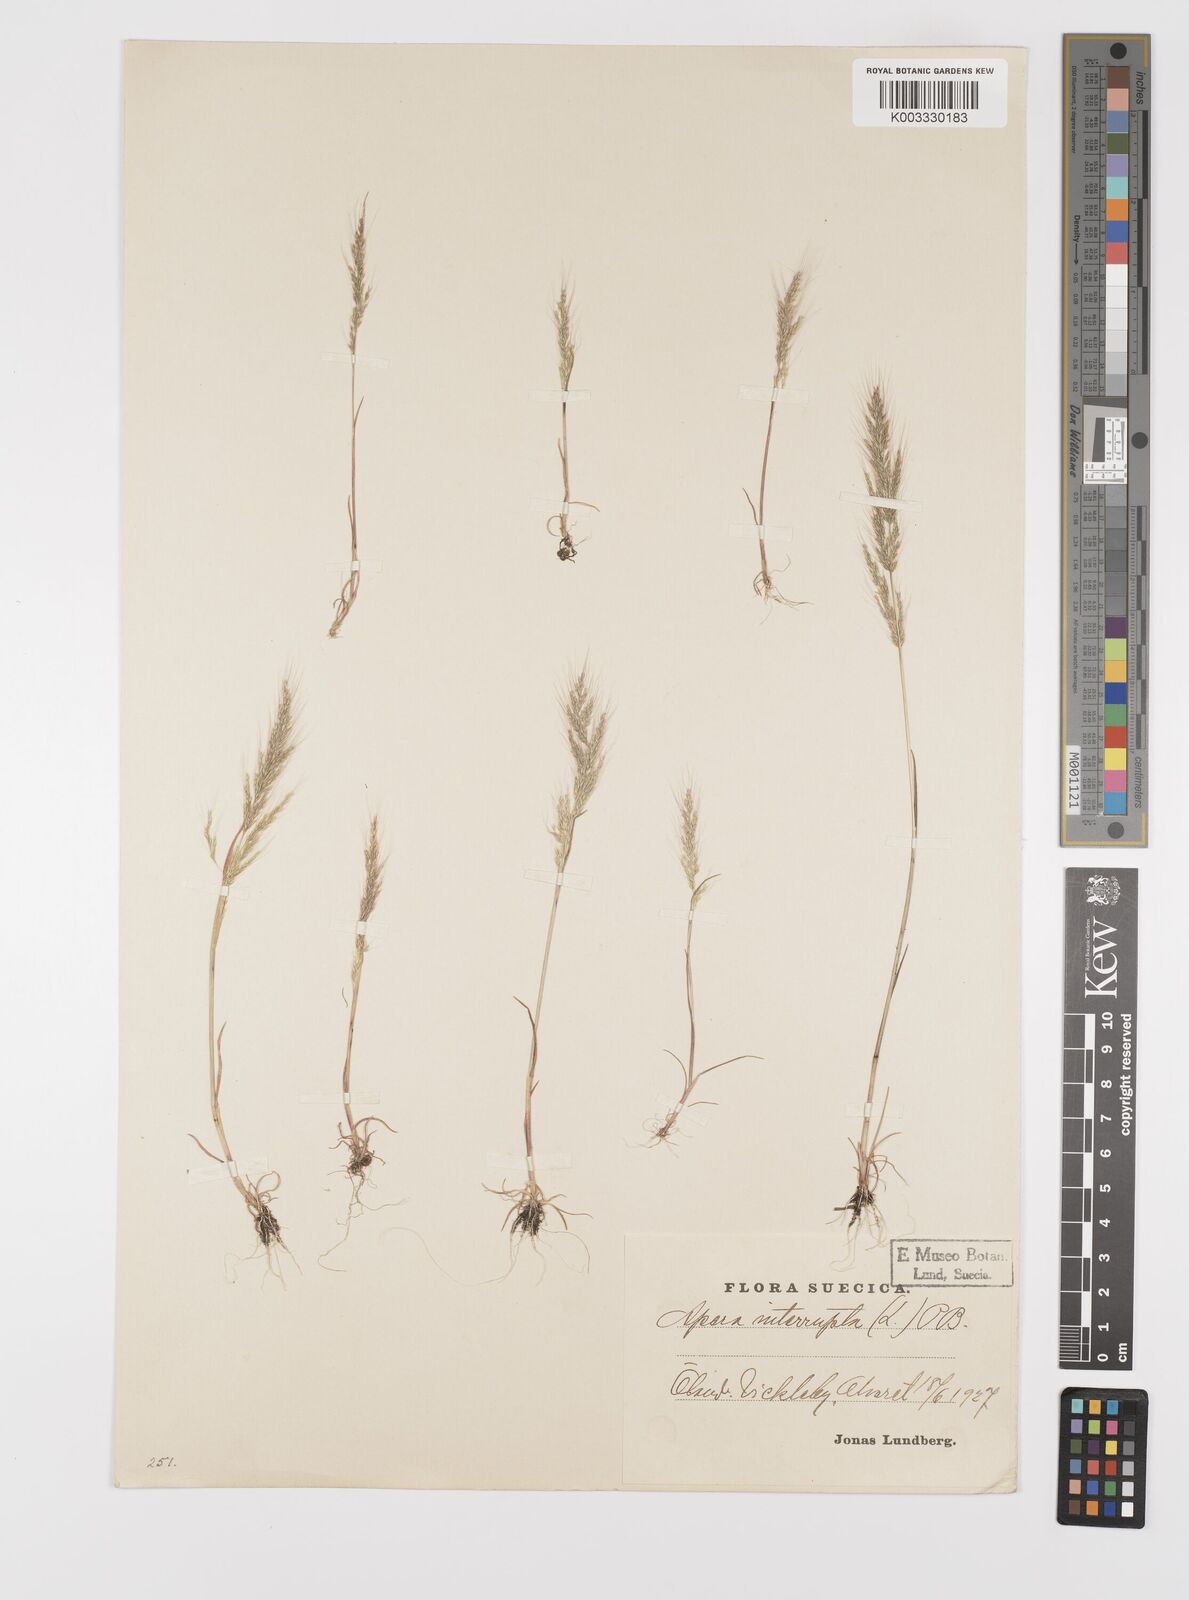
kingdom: Plantae
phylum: Tracheophyta
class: Liliopsida
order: Poales
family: Poaceae
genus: Apera
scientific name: Apera interrupta
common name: Dense silky-bent
